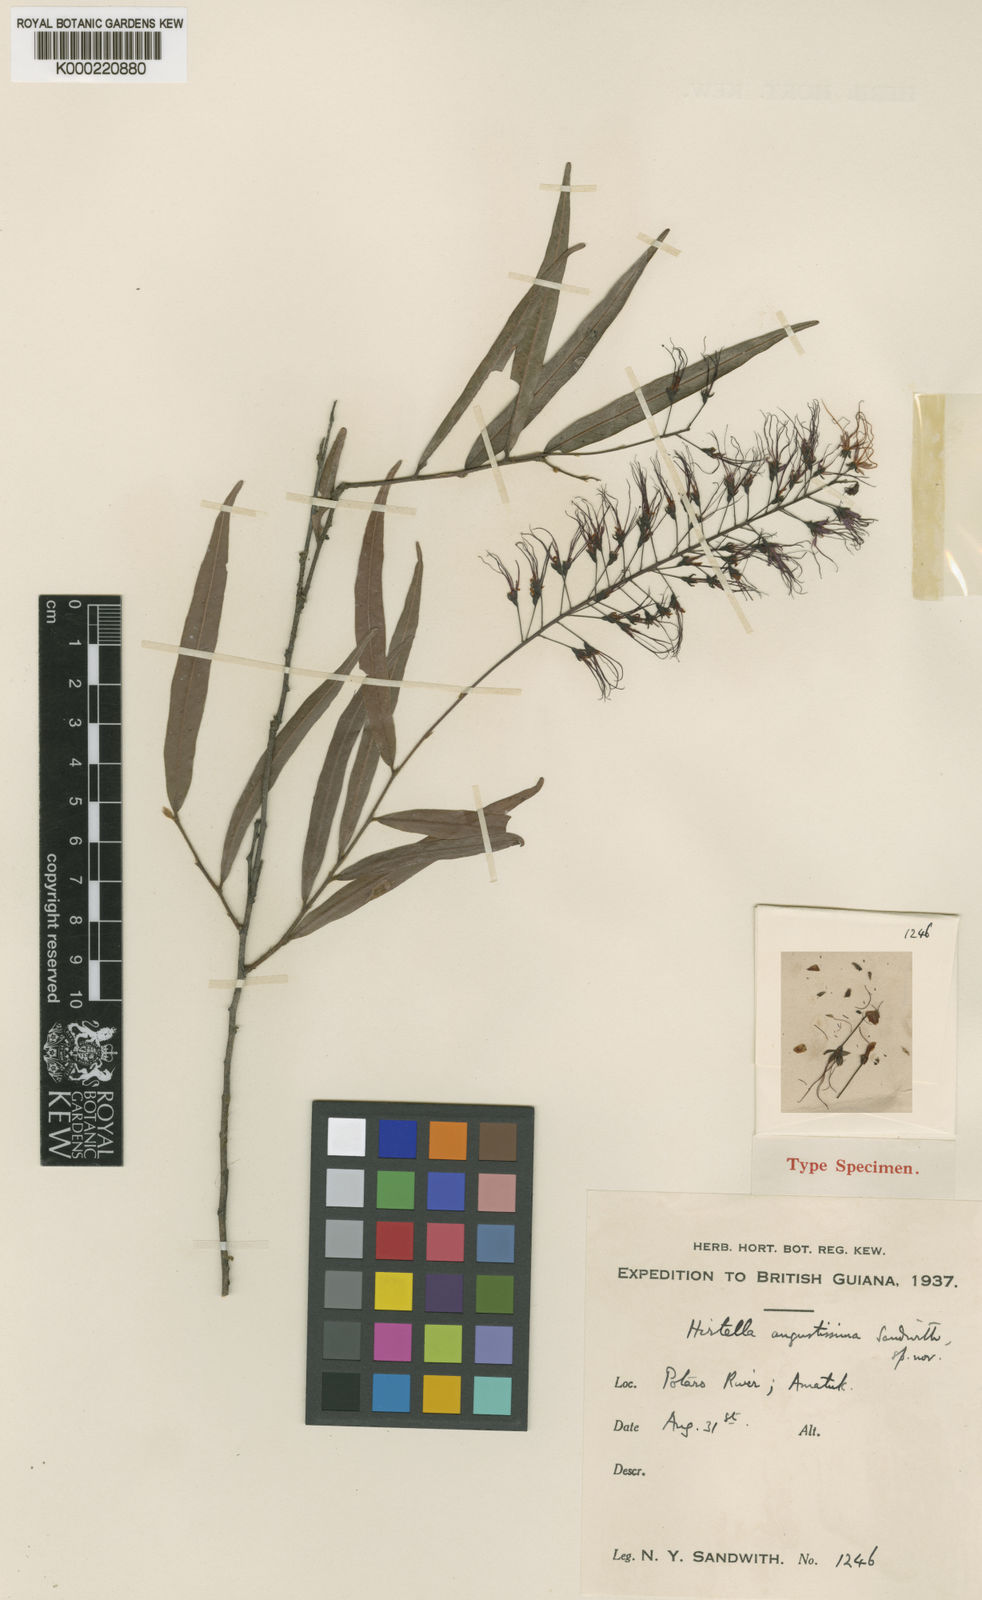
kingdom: Plantae
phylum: Tracheophyta
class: Magnoliopsida
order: Malpighiales
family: Chrysobalanaceae
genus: Hirtella
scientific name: Hirtella angustissima
